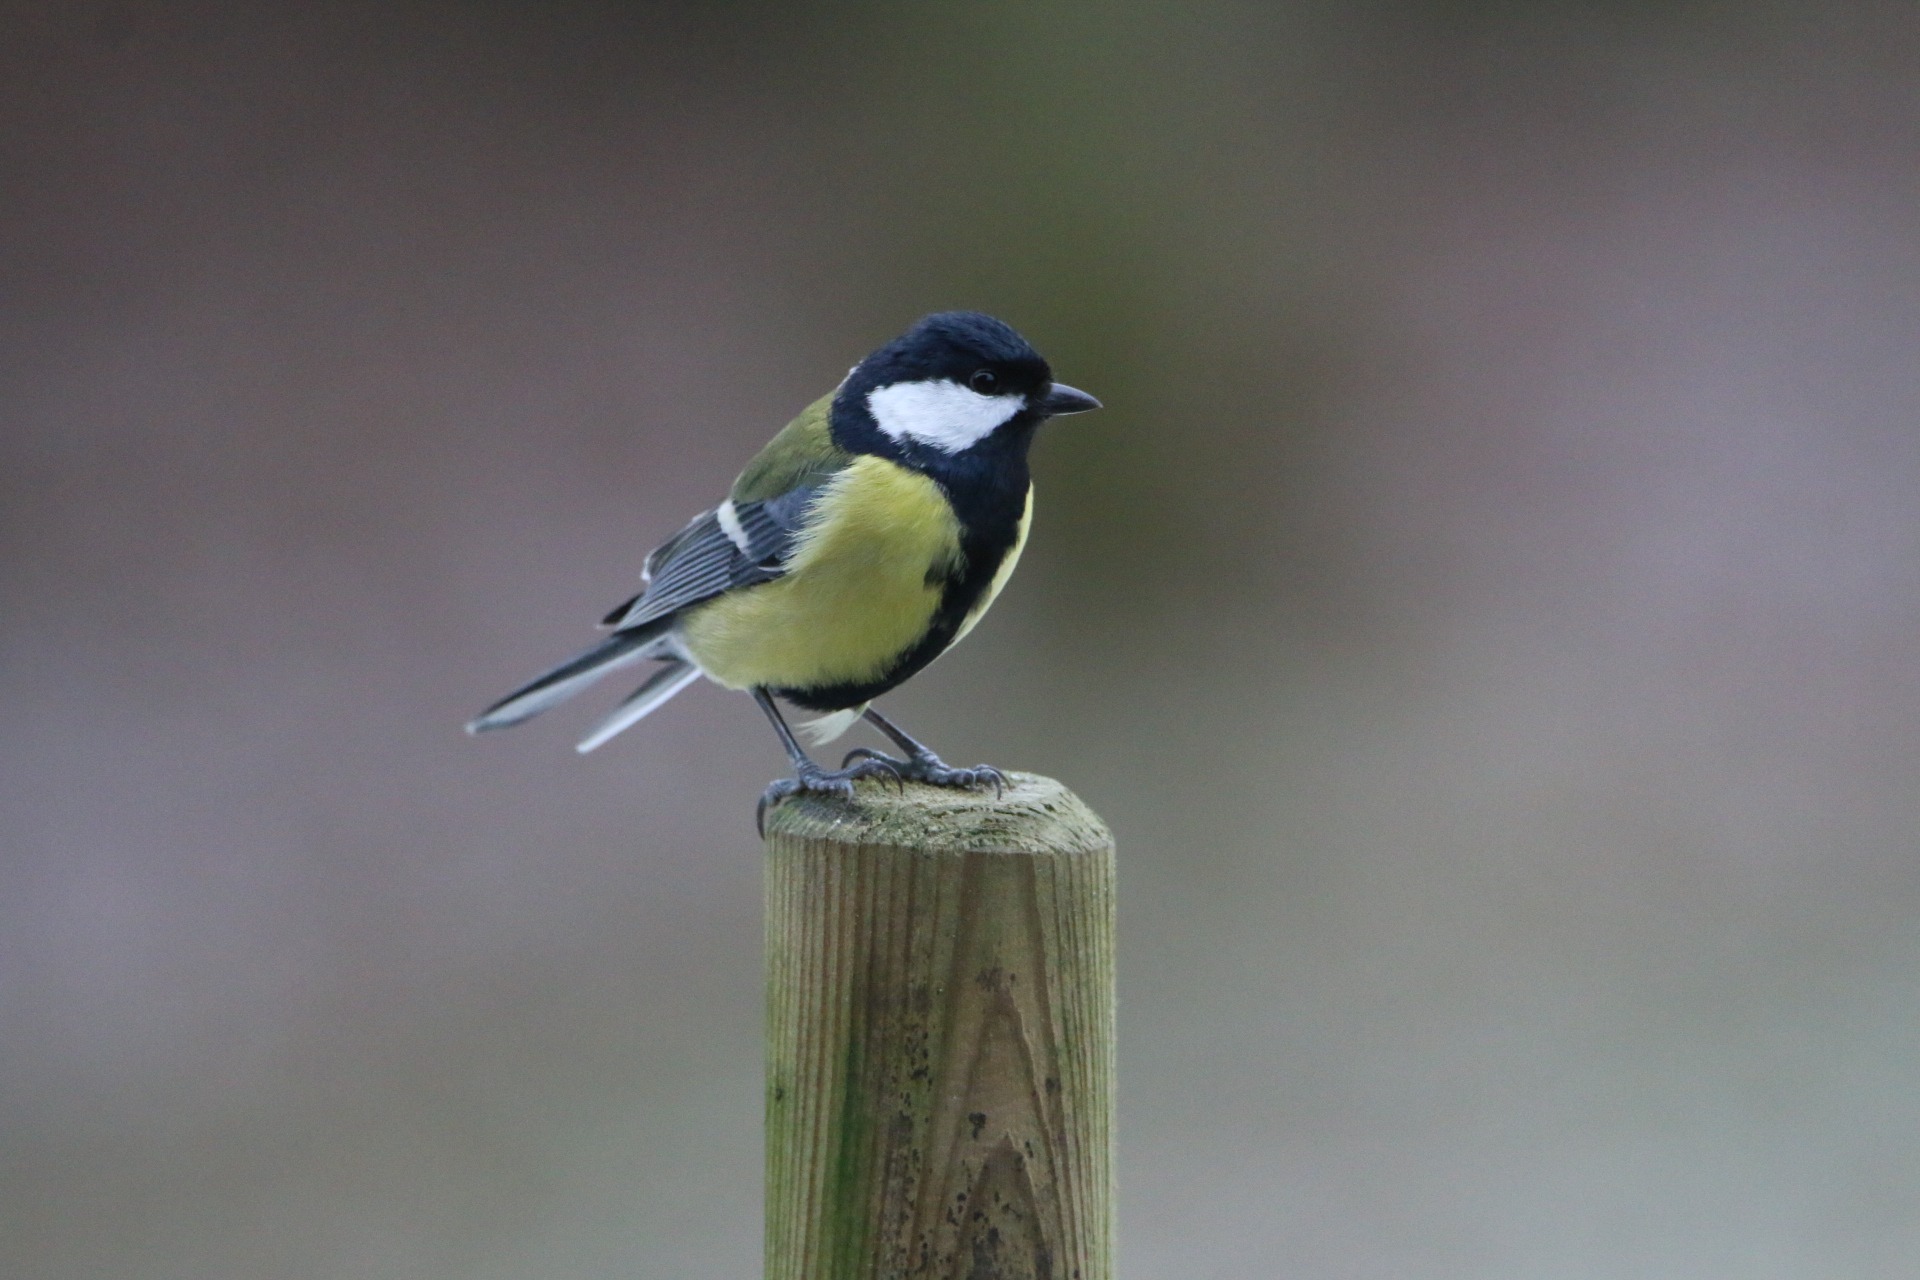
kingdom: Animalia
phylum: Chordata
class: Aves
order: Passeriformes
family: Paridae
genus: Parus
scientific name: Parus major
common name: Musvit
